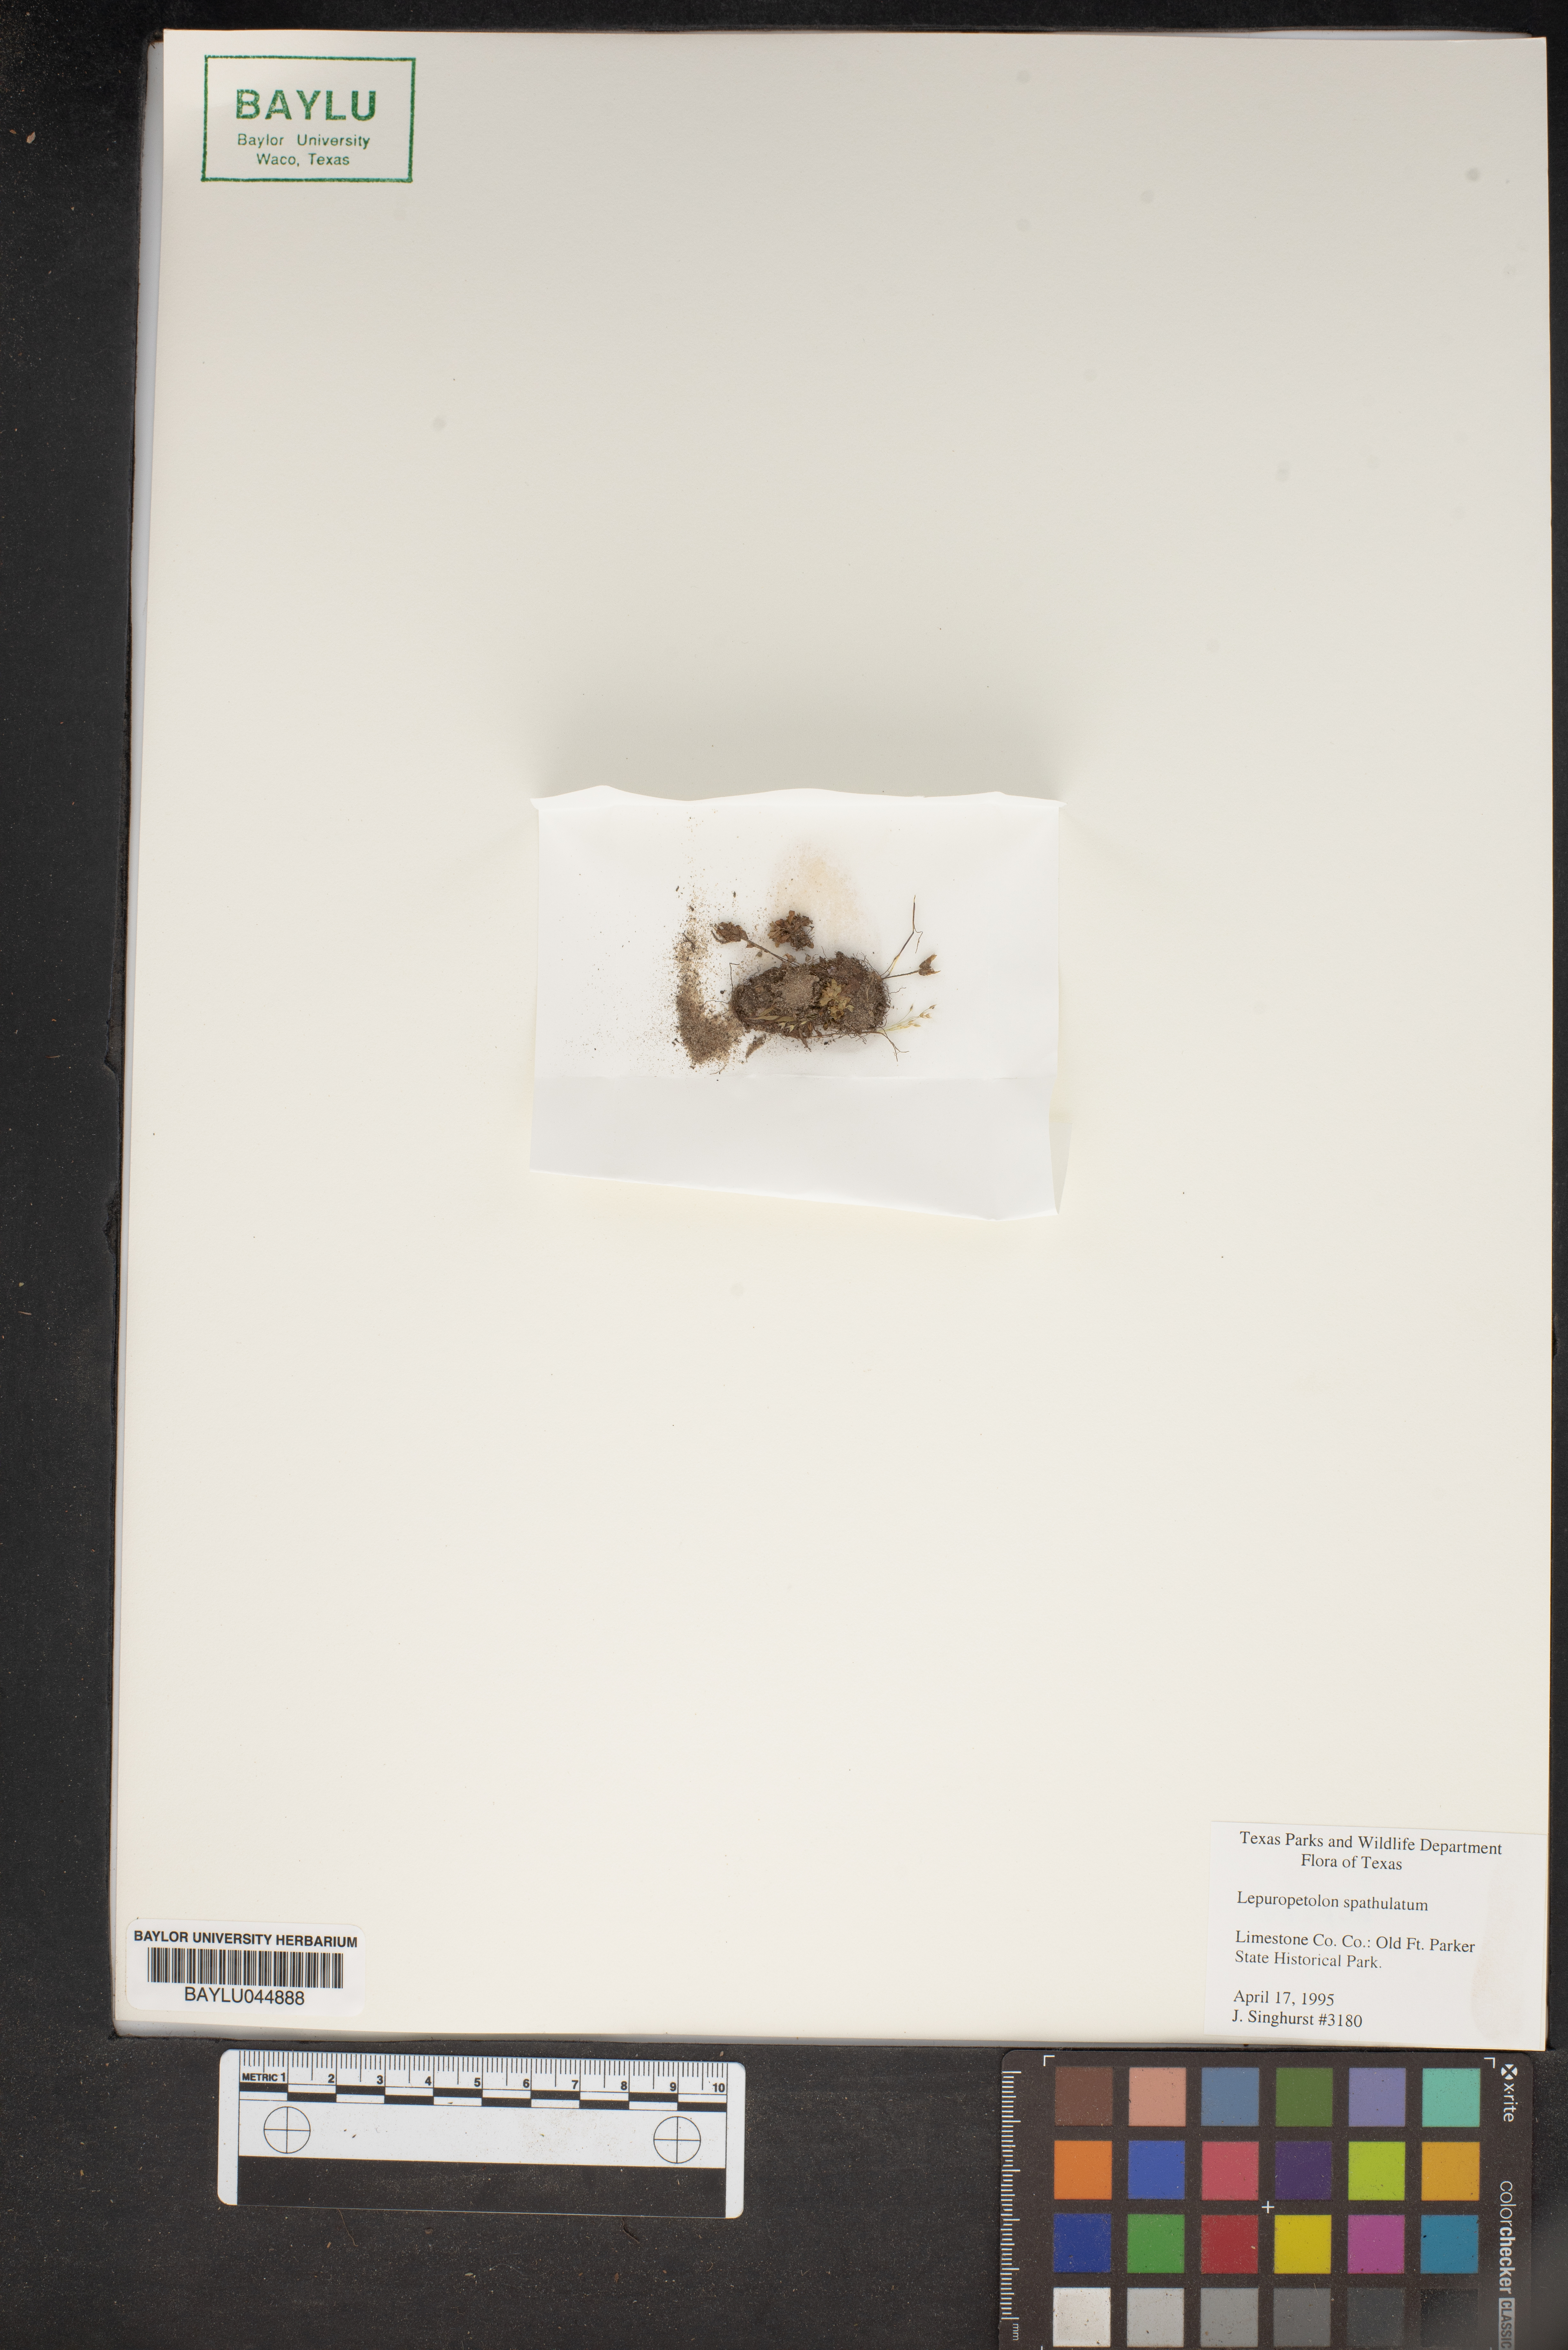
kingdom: Plantae
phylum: Tracheophyta
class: Magnoliopsida
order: Celastrales
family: Parnassiaceae
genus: Lepuropetalon
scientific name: Lepuropetalon spathulatum
